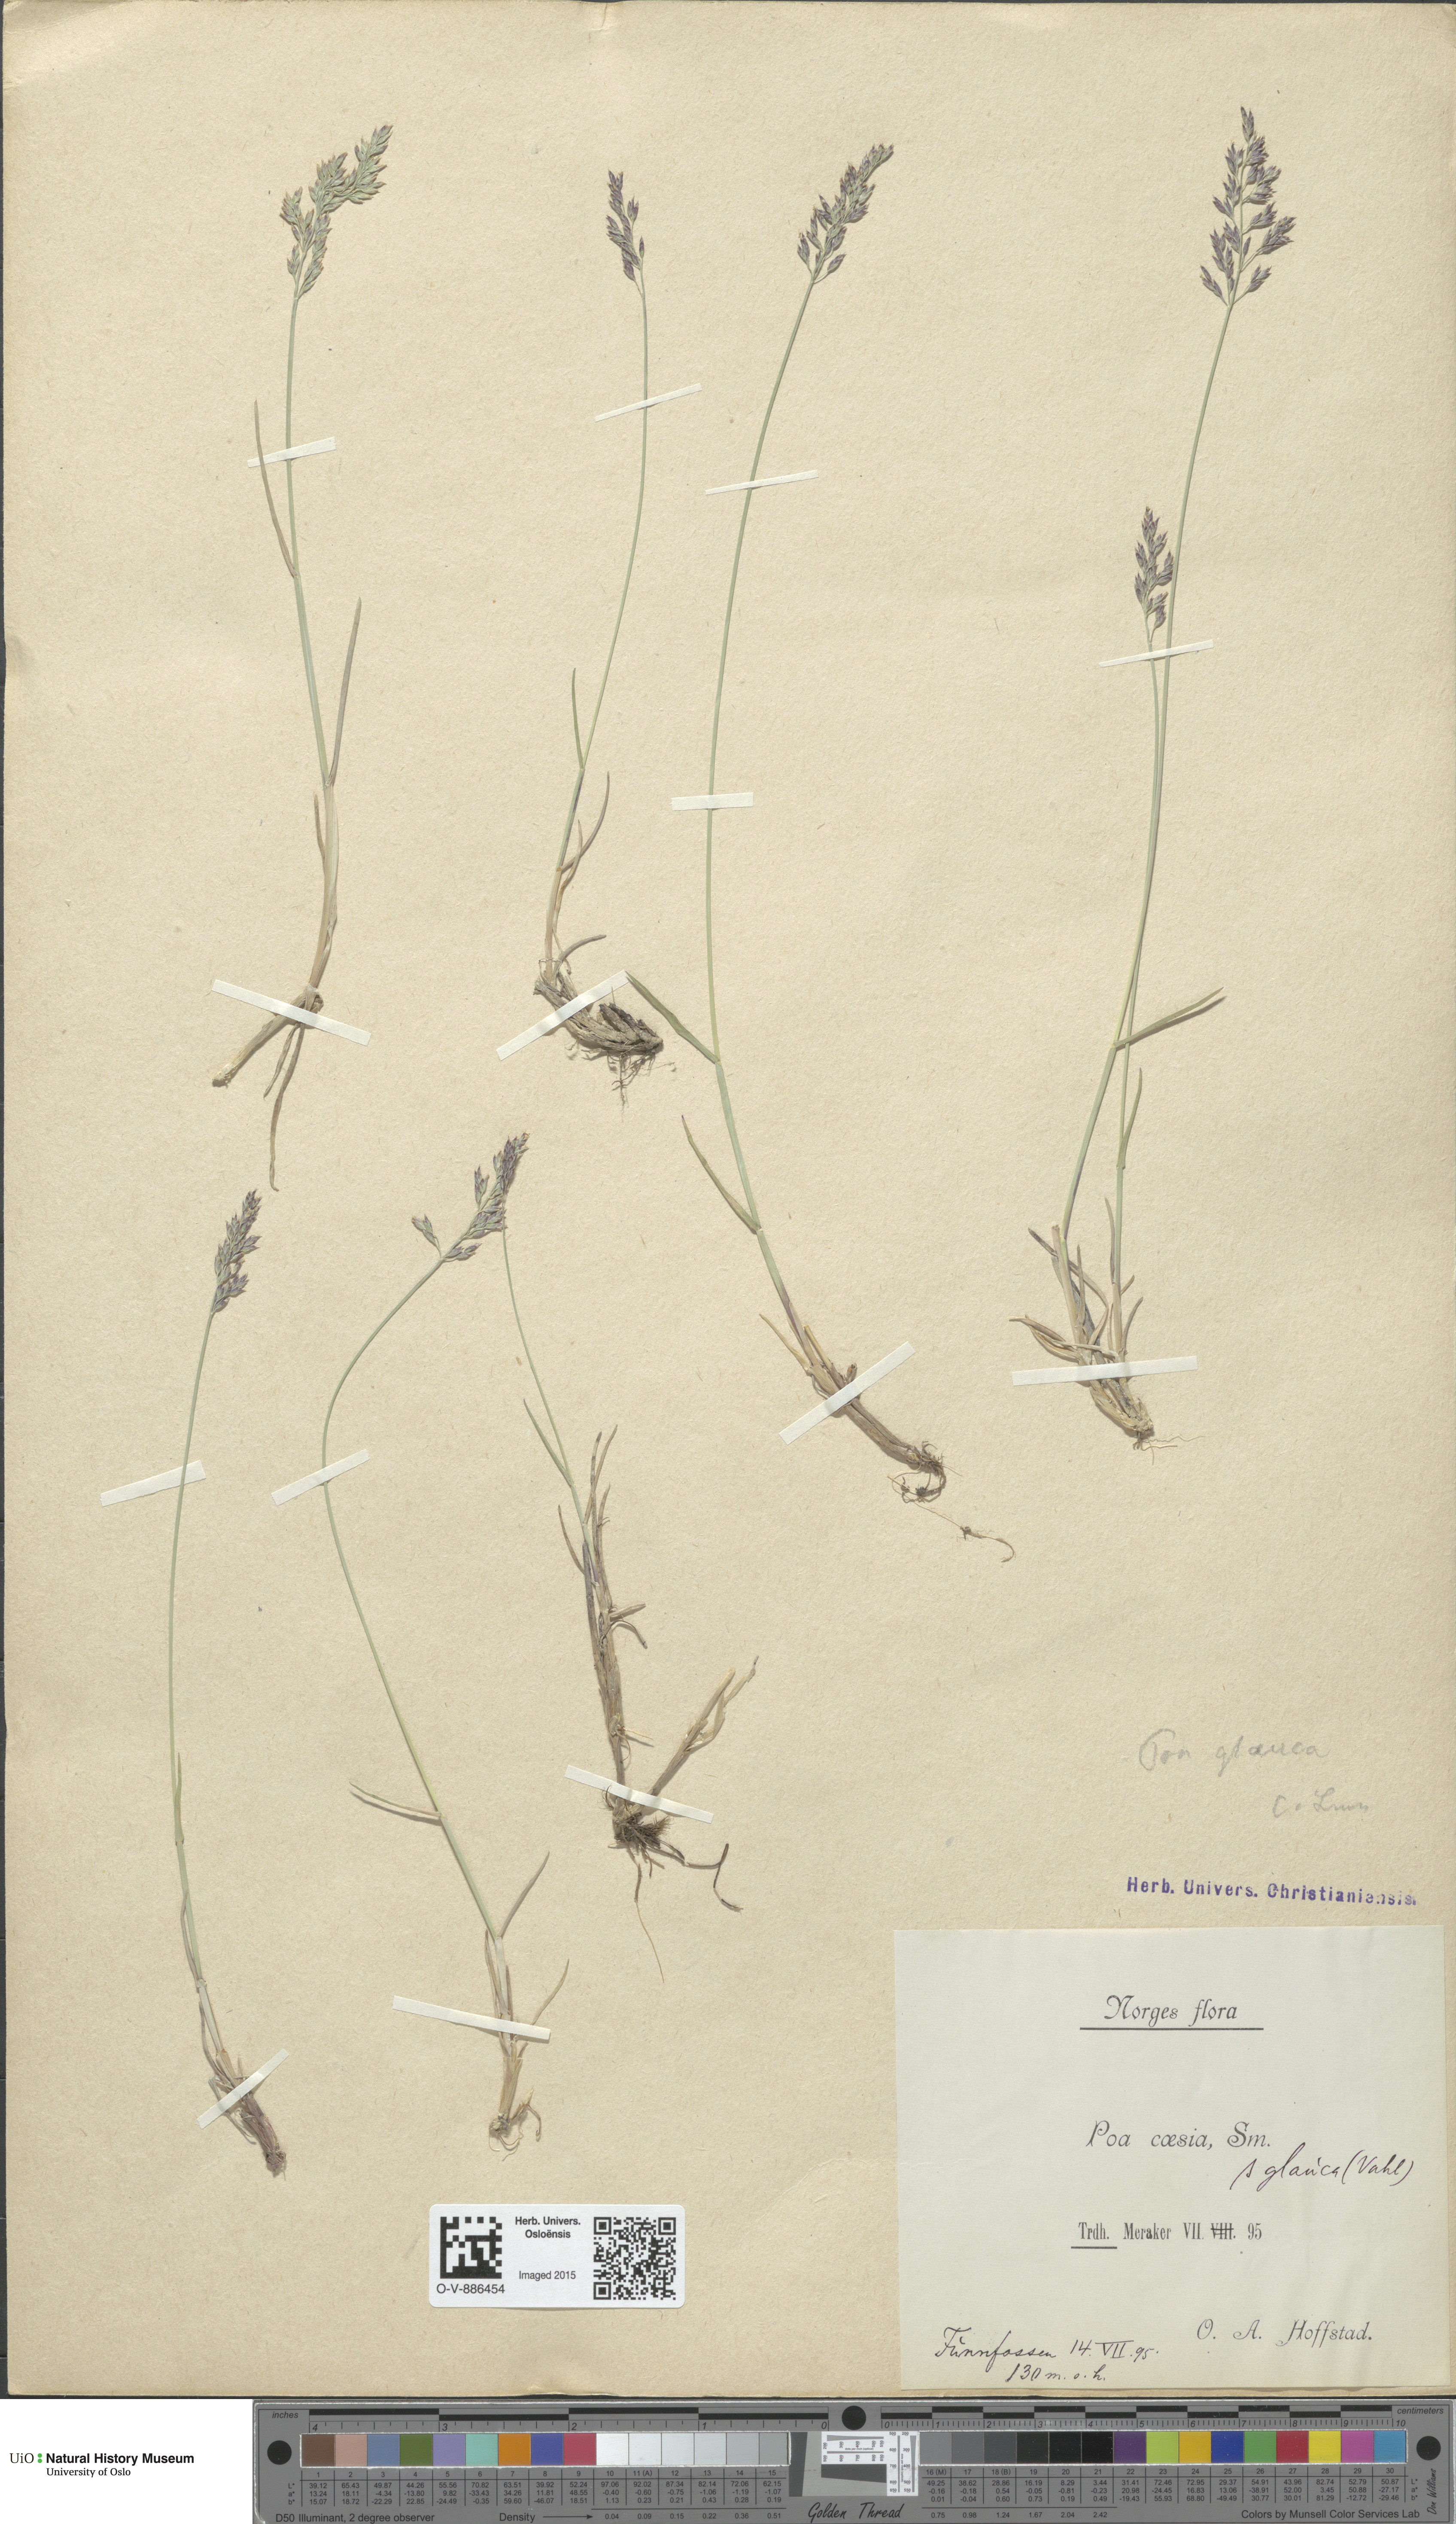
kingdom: Plantae
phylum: Tracheophyta
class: Liliopsida
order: Poales
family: Poaceae
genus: Poa
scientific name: Poa glauca
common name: Glaucous bluegrass
